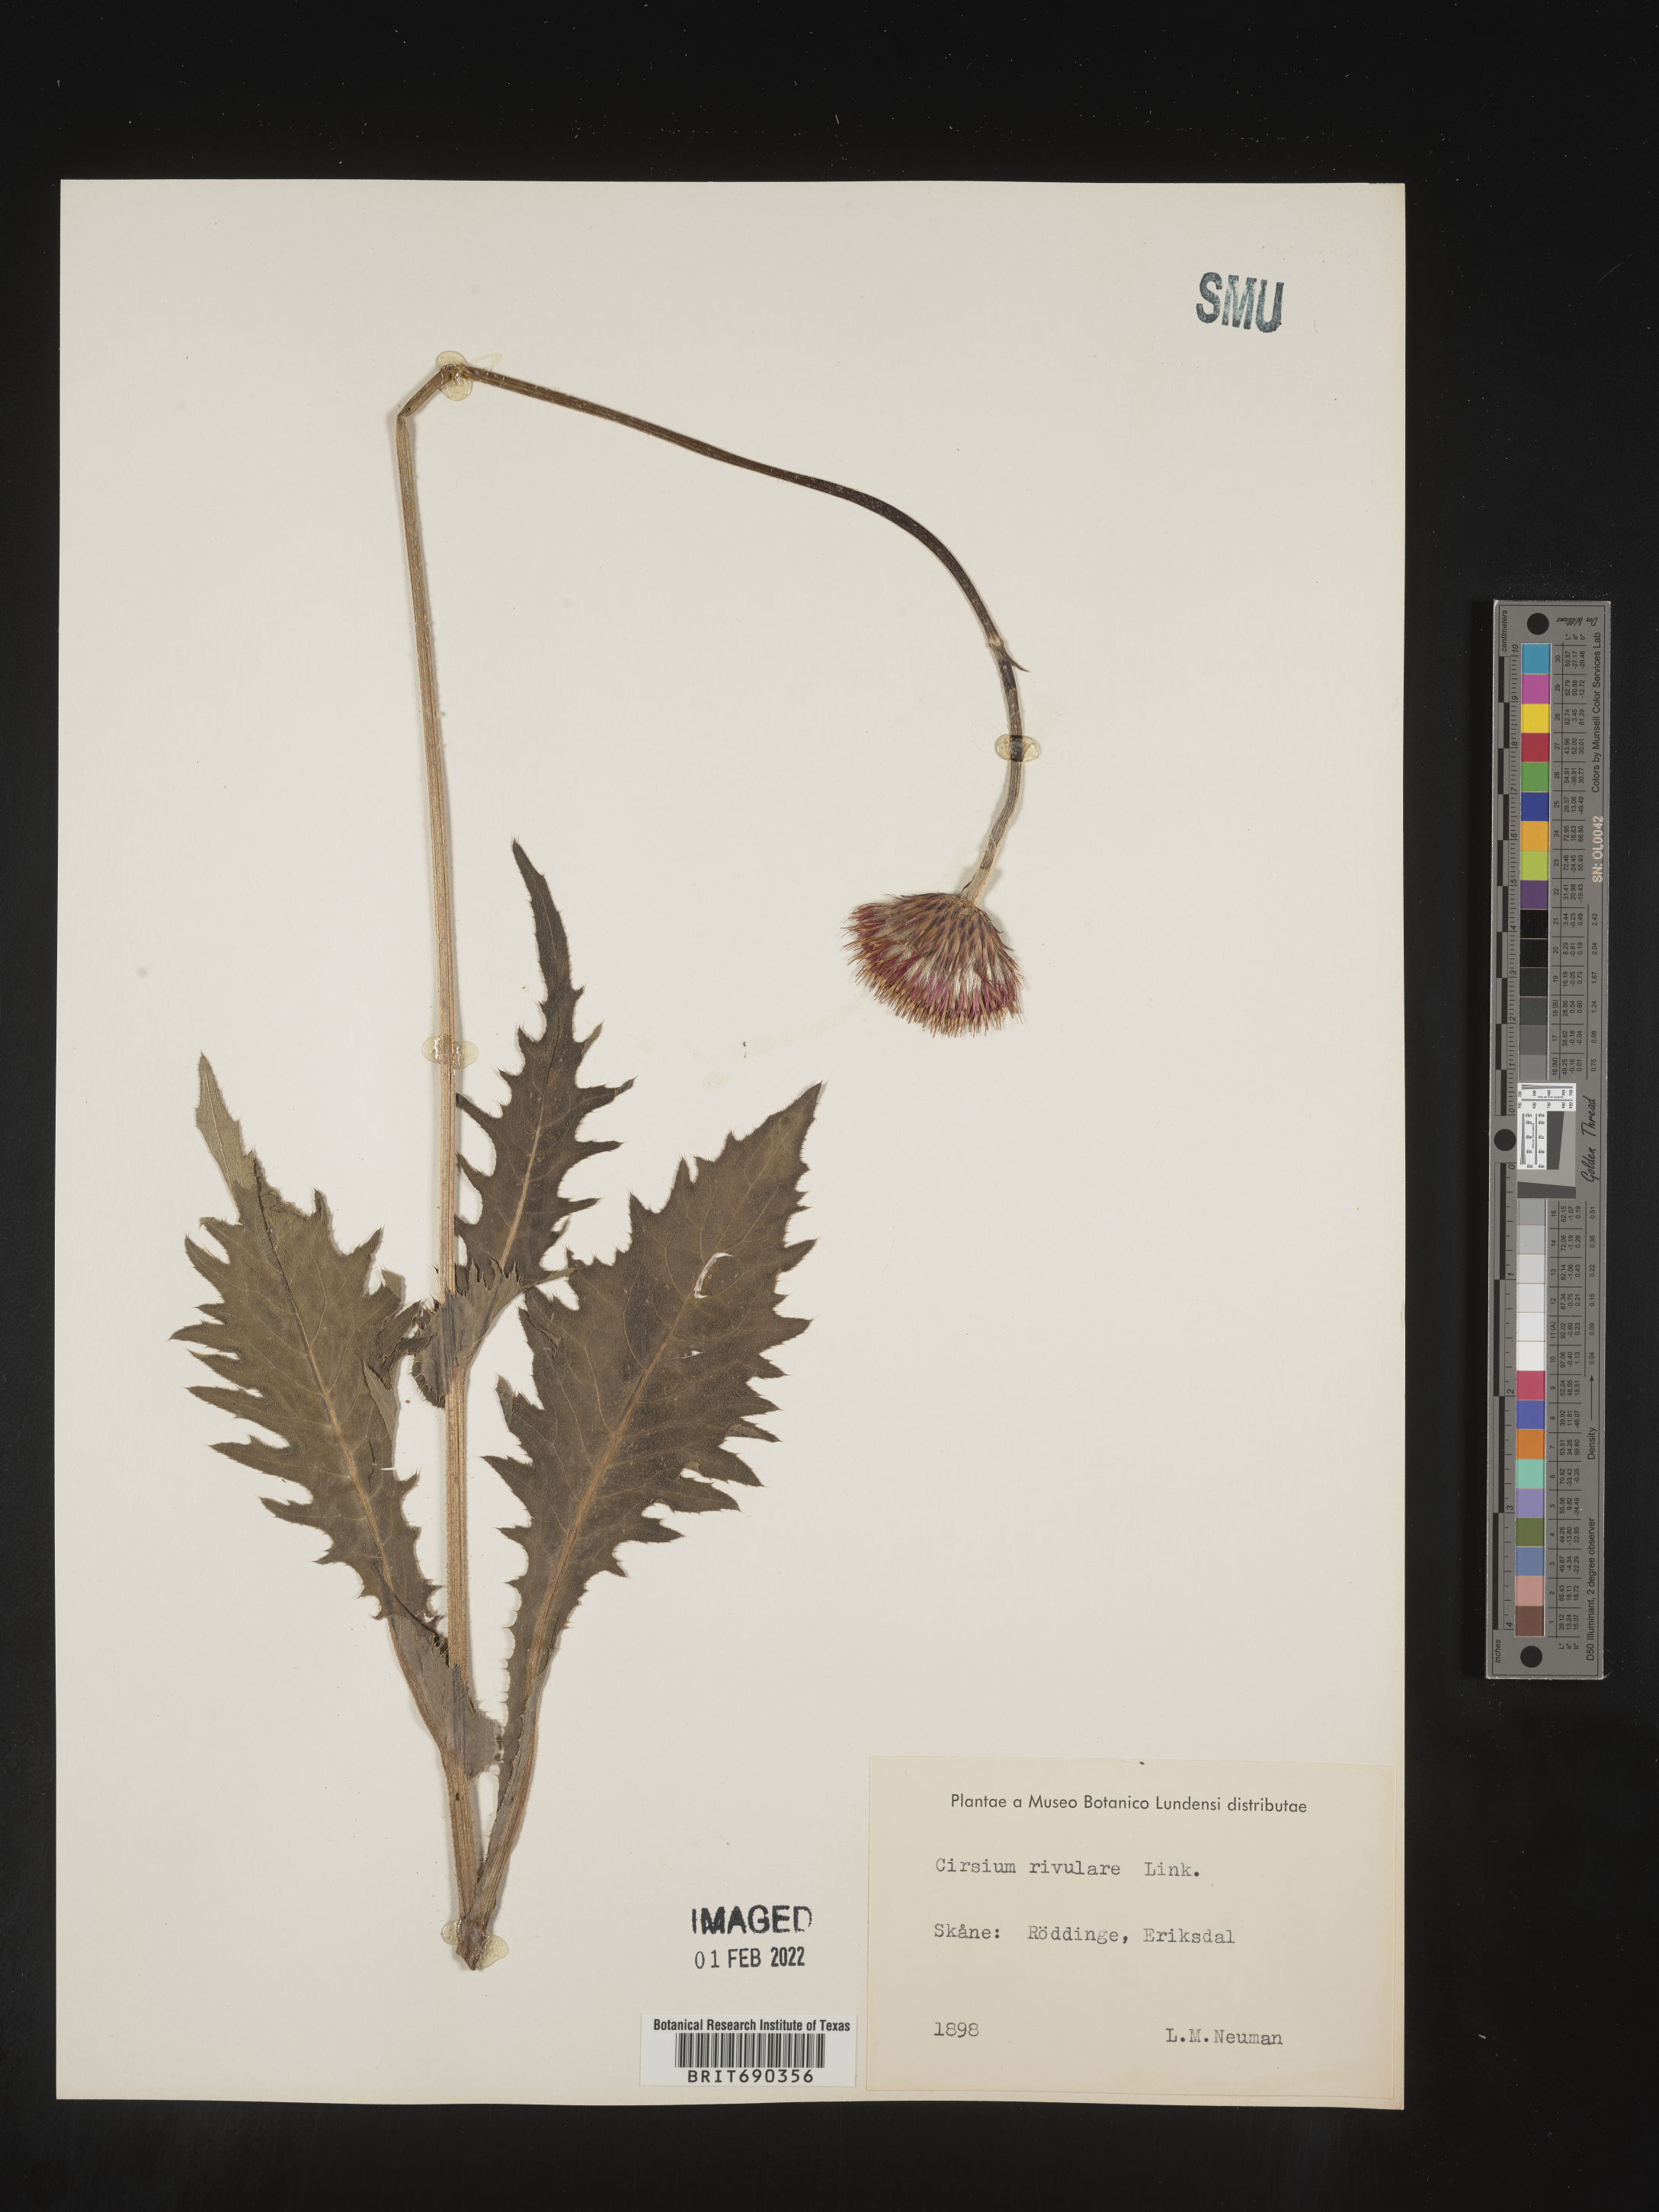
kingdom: Plantae
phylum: Tracheophyta
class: Magnoliopsida
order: Asterales
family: Asteraceae
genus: Cirsium
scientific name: Cirsium
